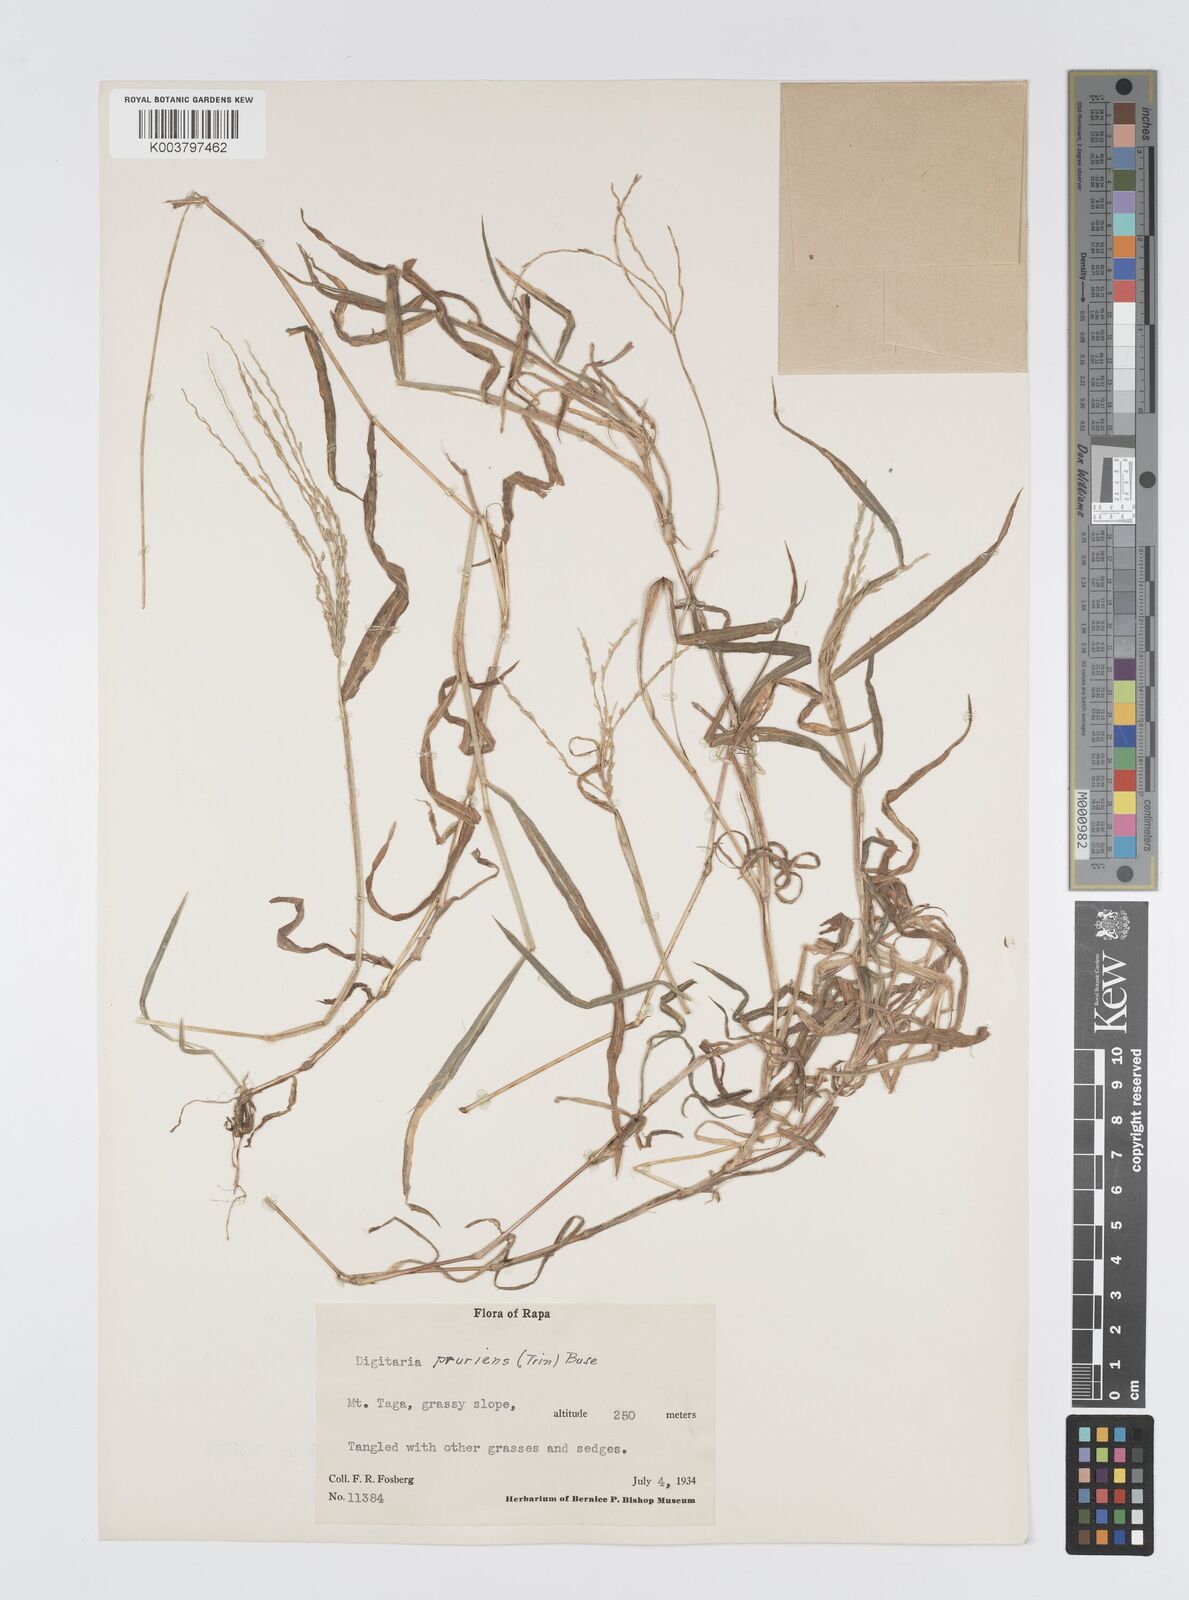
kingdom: Plantae
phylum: Tracheophyta
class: Liliopsida
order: Poales
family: Poaceae
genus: Digitaria
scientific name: Digitaria setigera
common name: East indian crabgrass
